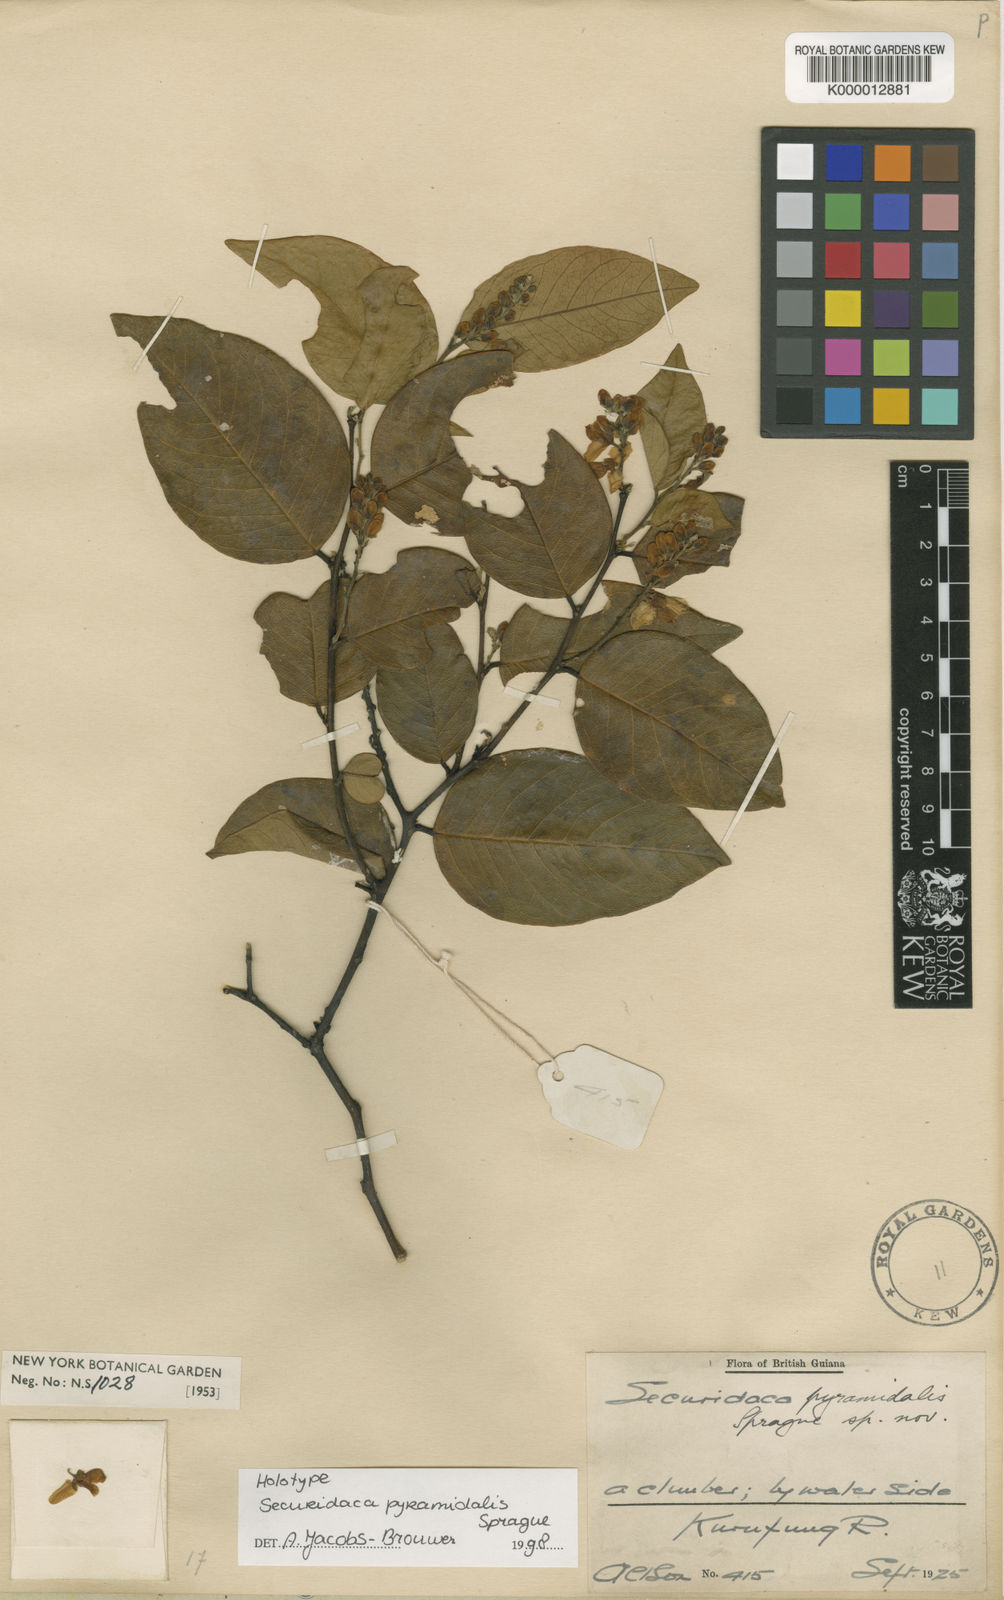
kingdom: Plantae
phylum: Tracheophyta
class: Magnoliopsida
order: Fabales
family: Polygalaceae
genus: Securidaca
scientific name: Securidaca
